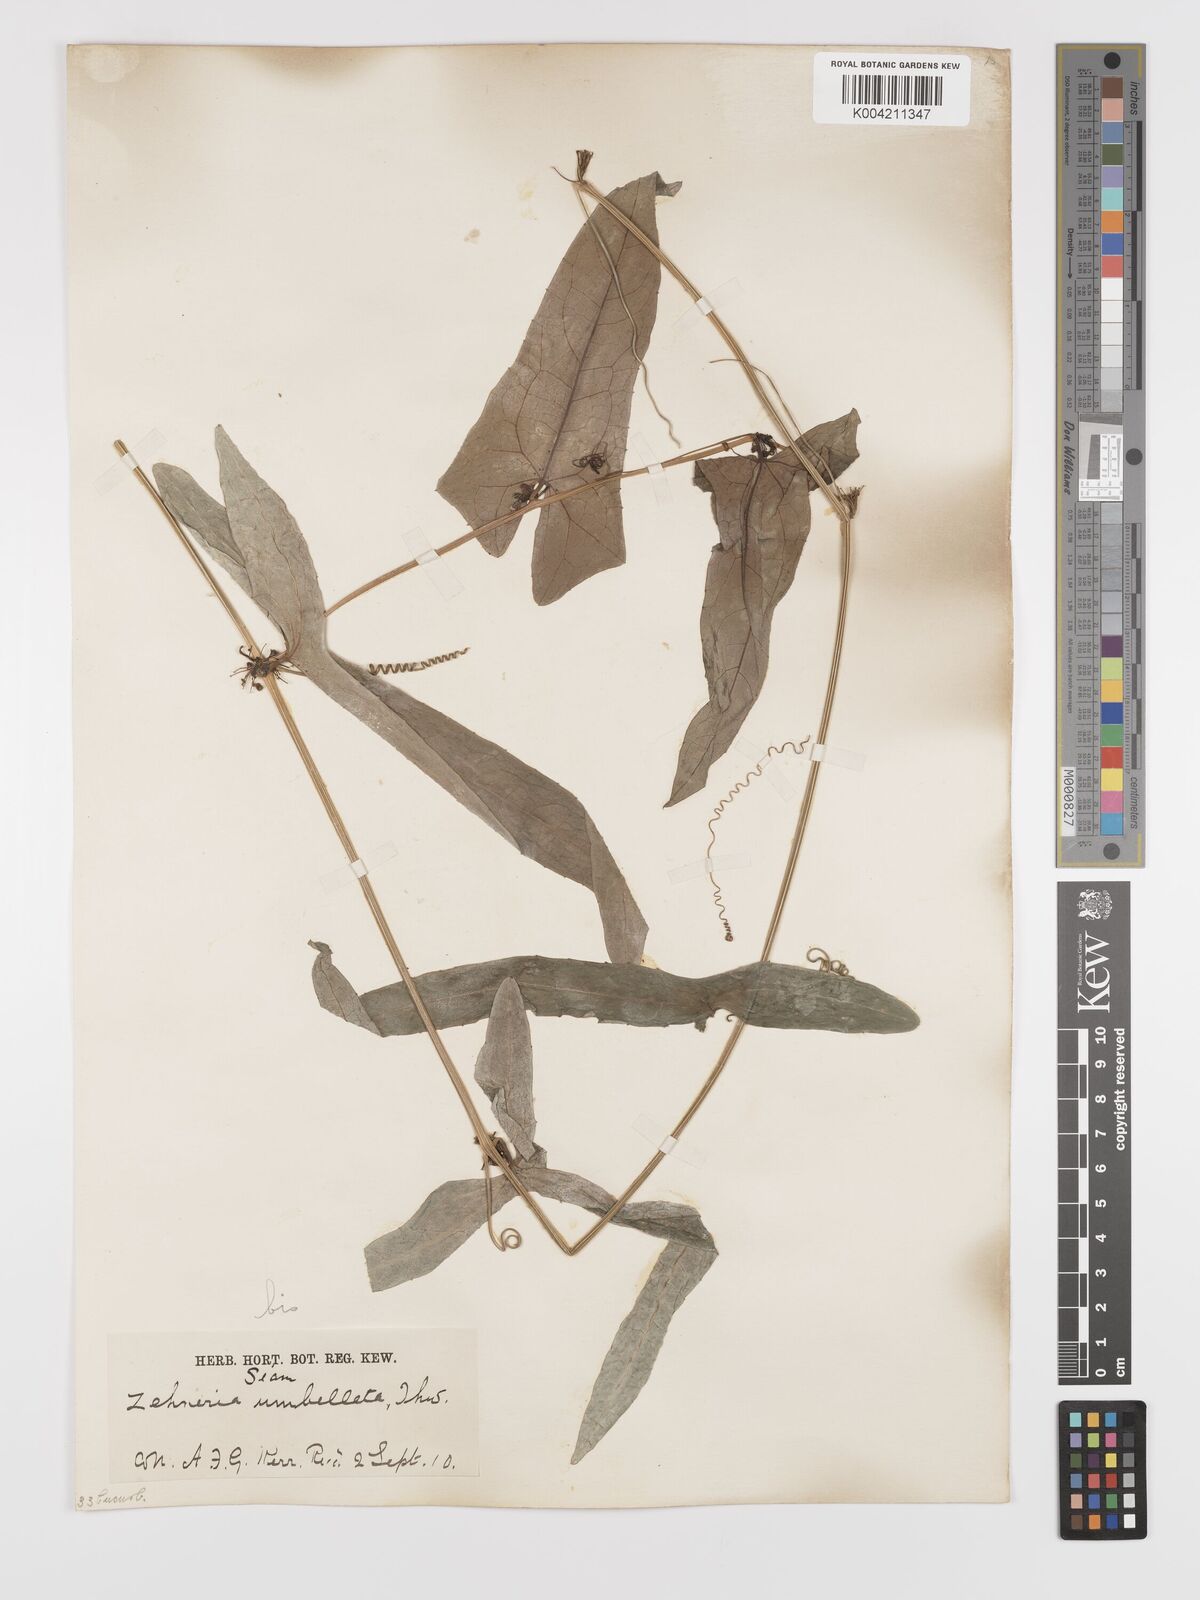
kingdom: Plantae
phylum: Tracheophyta
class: Magnoliopsida
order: Cucurbitales
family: Cucurbitaceae
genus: Solena
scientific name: Solena amplexicaulis
